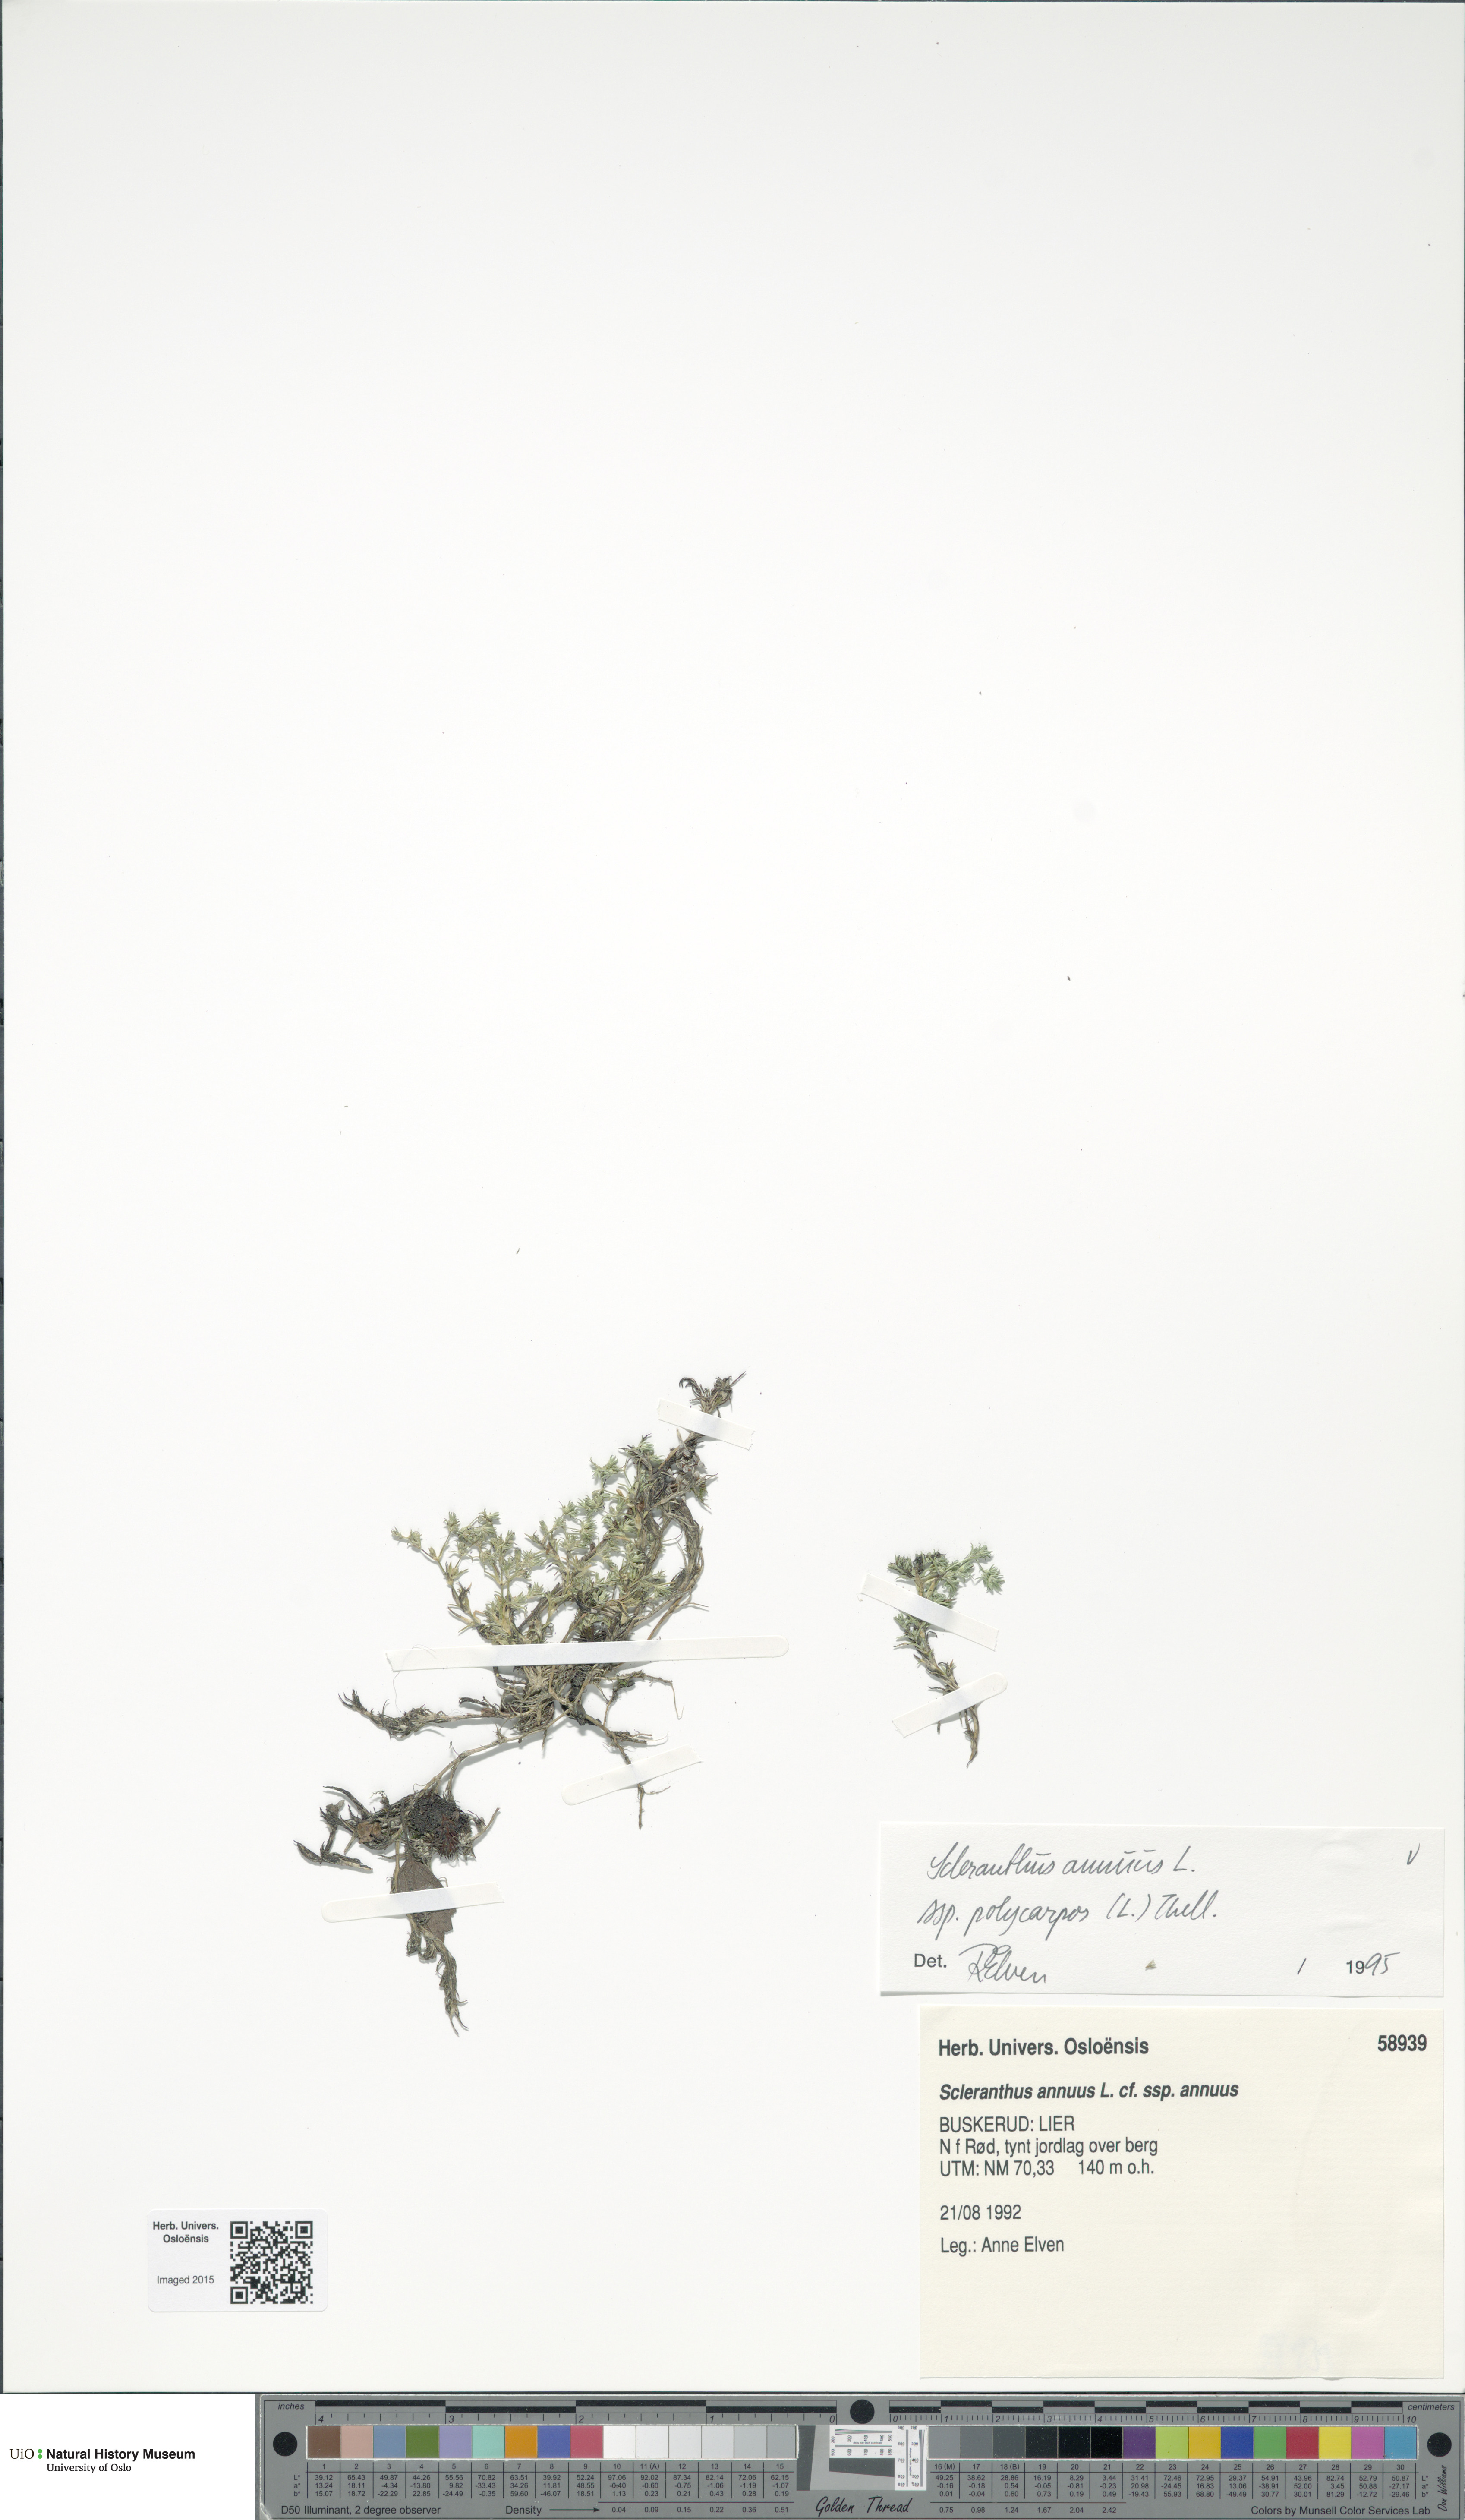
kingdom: Plantae
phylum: Tracheophyta
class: Magnoliopsida
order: Caryophyllales
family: Caryophyllaceae
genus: Scleranthus
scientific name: Scleranthus annuus
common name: Annual knawel
